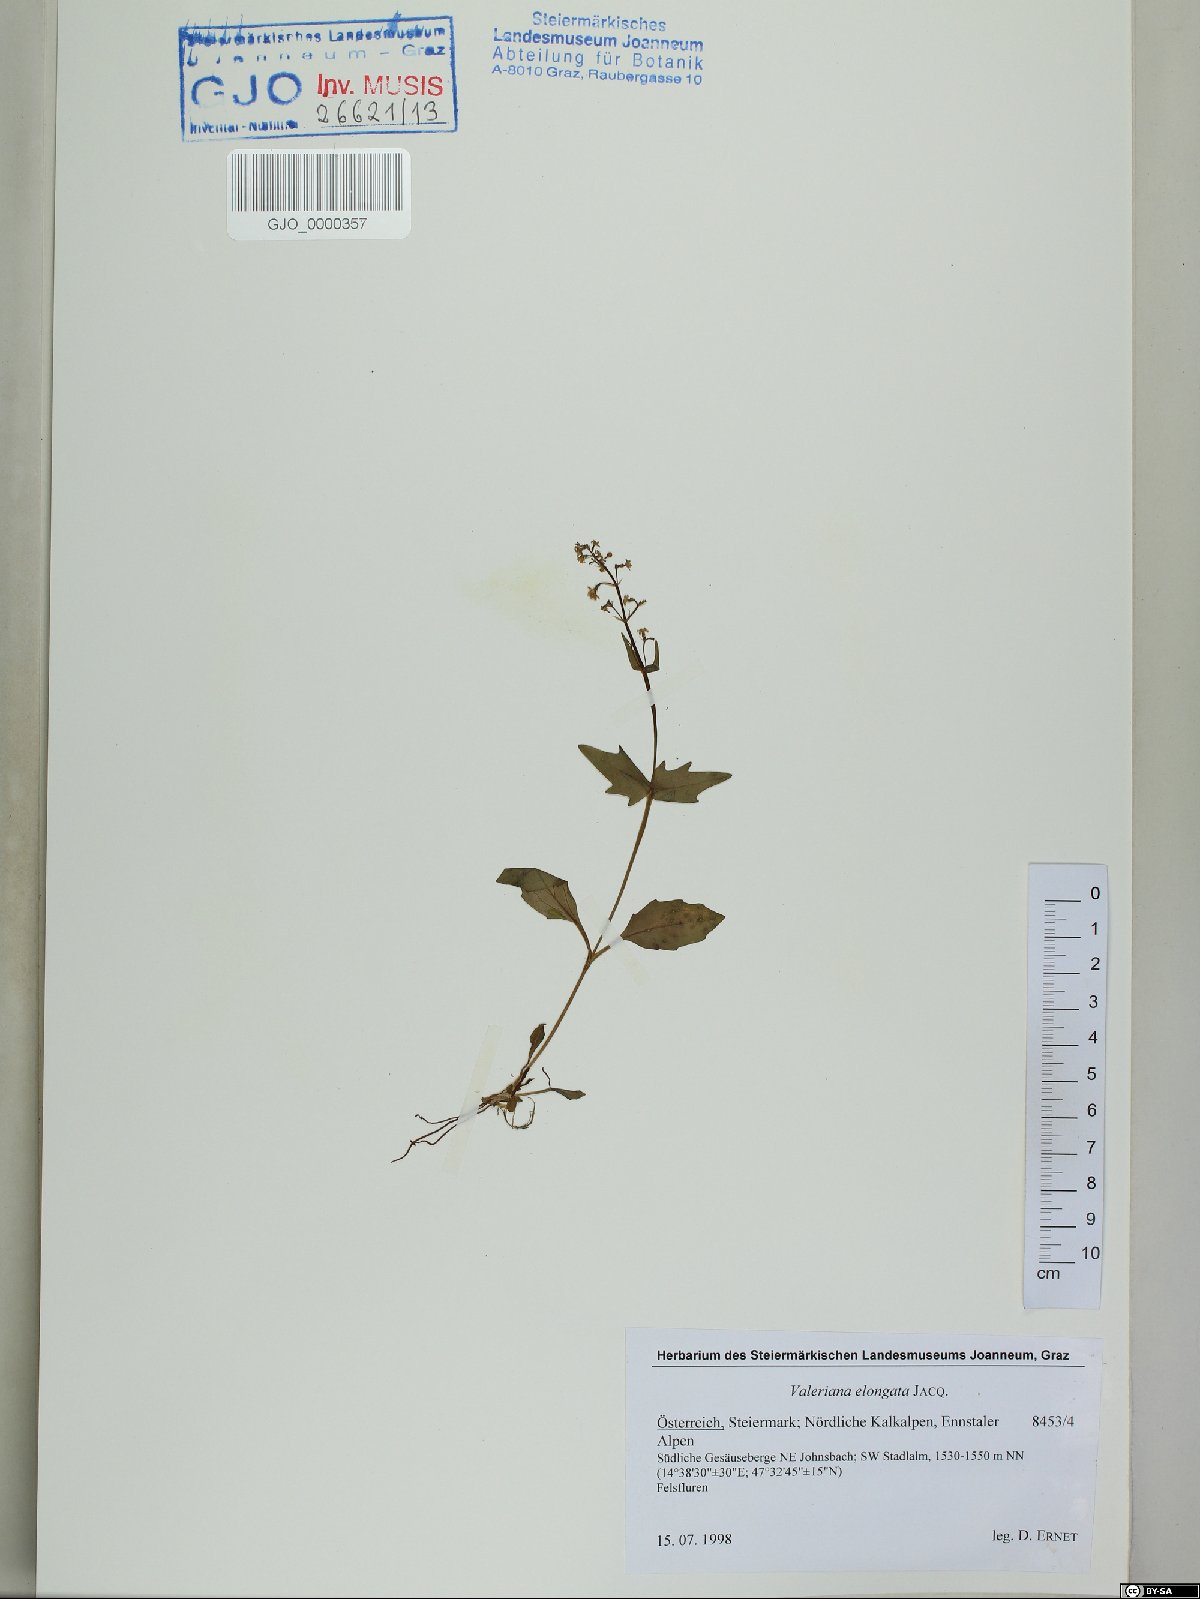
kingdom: Plantae
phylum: Tracheophyta
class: Magnoliopsida
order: Dipsacales
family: Caprifoliaceae
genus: Valeriana
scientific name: Valeriana elongata
